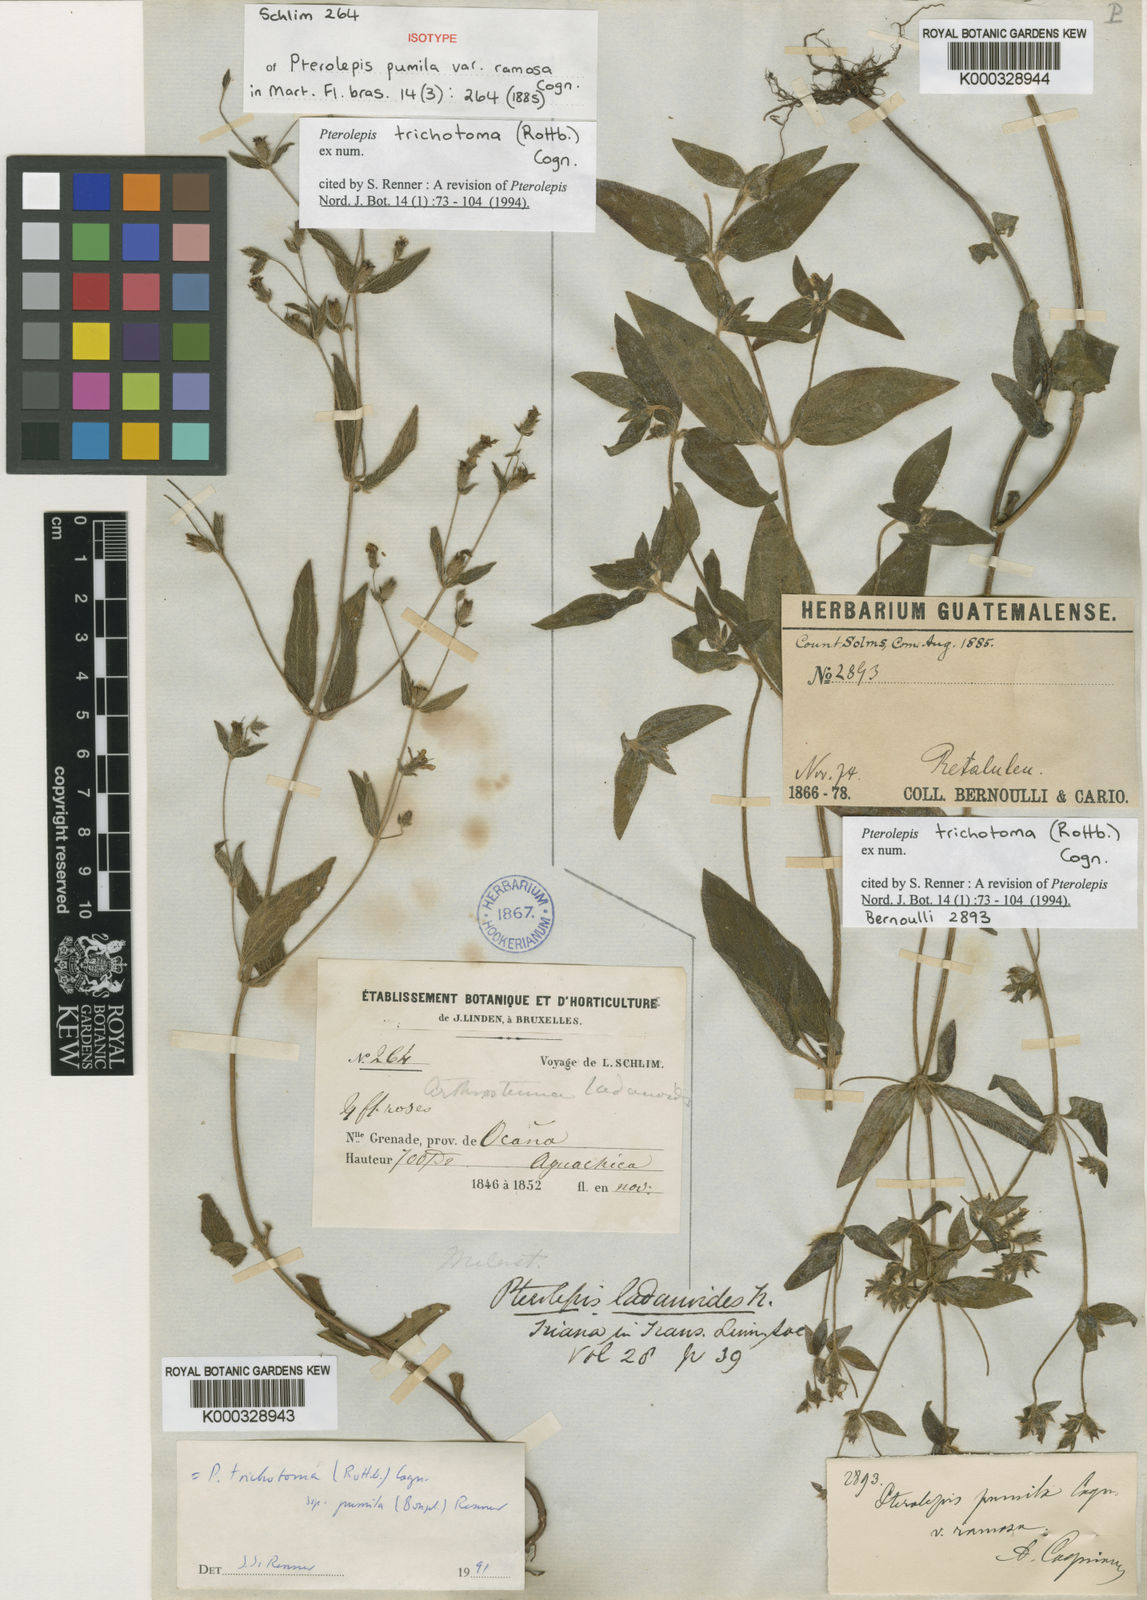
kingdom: Plantae
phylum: Tracheophyta
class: Magnoliopsida
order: Myrtales
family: Melastomataceae
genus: Pterolepis
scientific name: Pterolepis trichotoma
